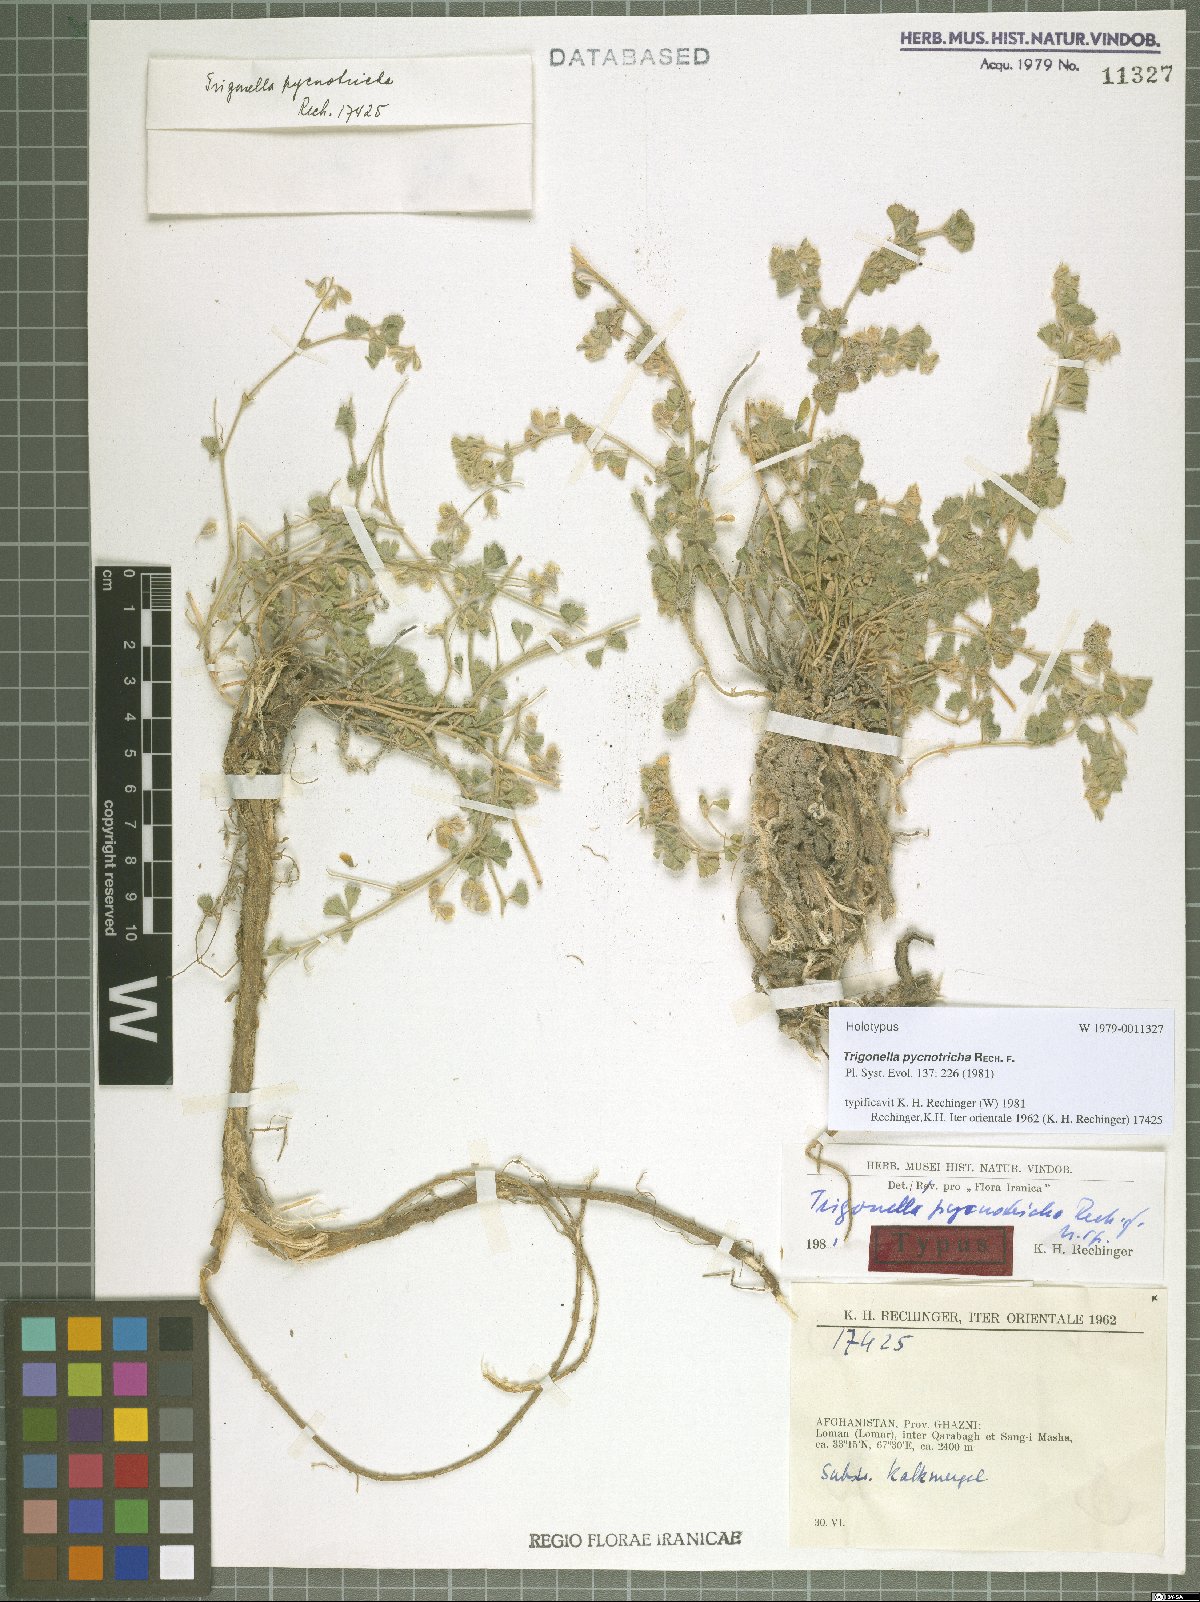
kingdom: Plantae
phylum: Tracheophyta
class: Magnoliopsida
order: Fabales
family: Fabaceae
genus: Trigonella
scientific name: Trigonella pycnotricha
